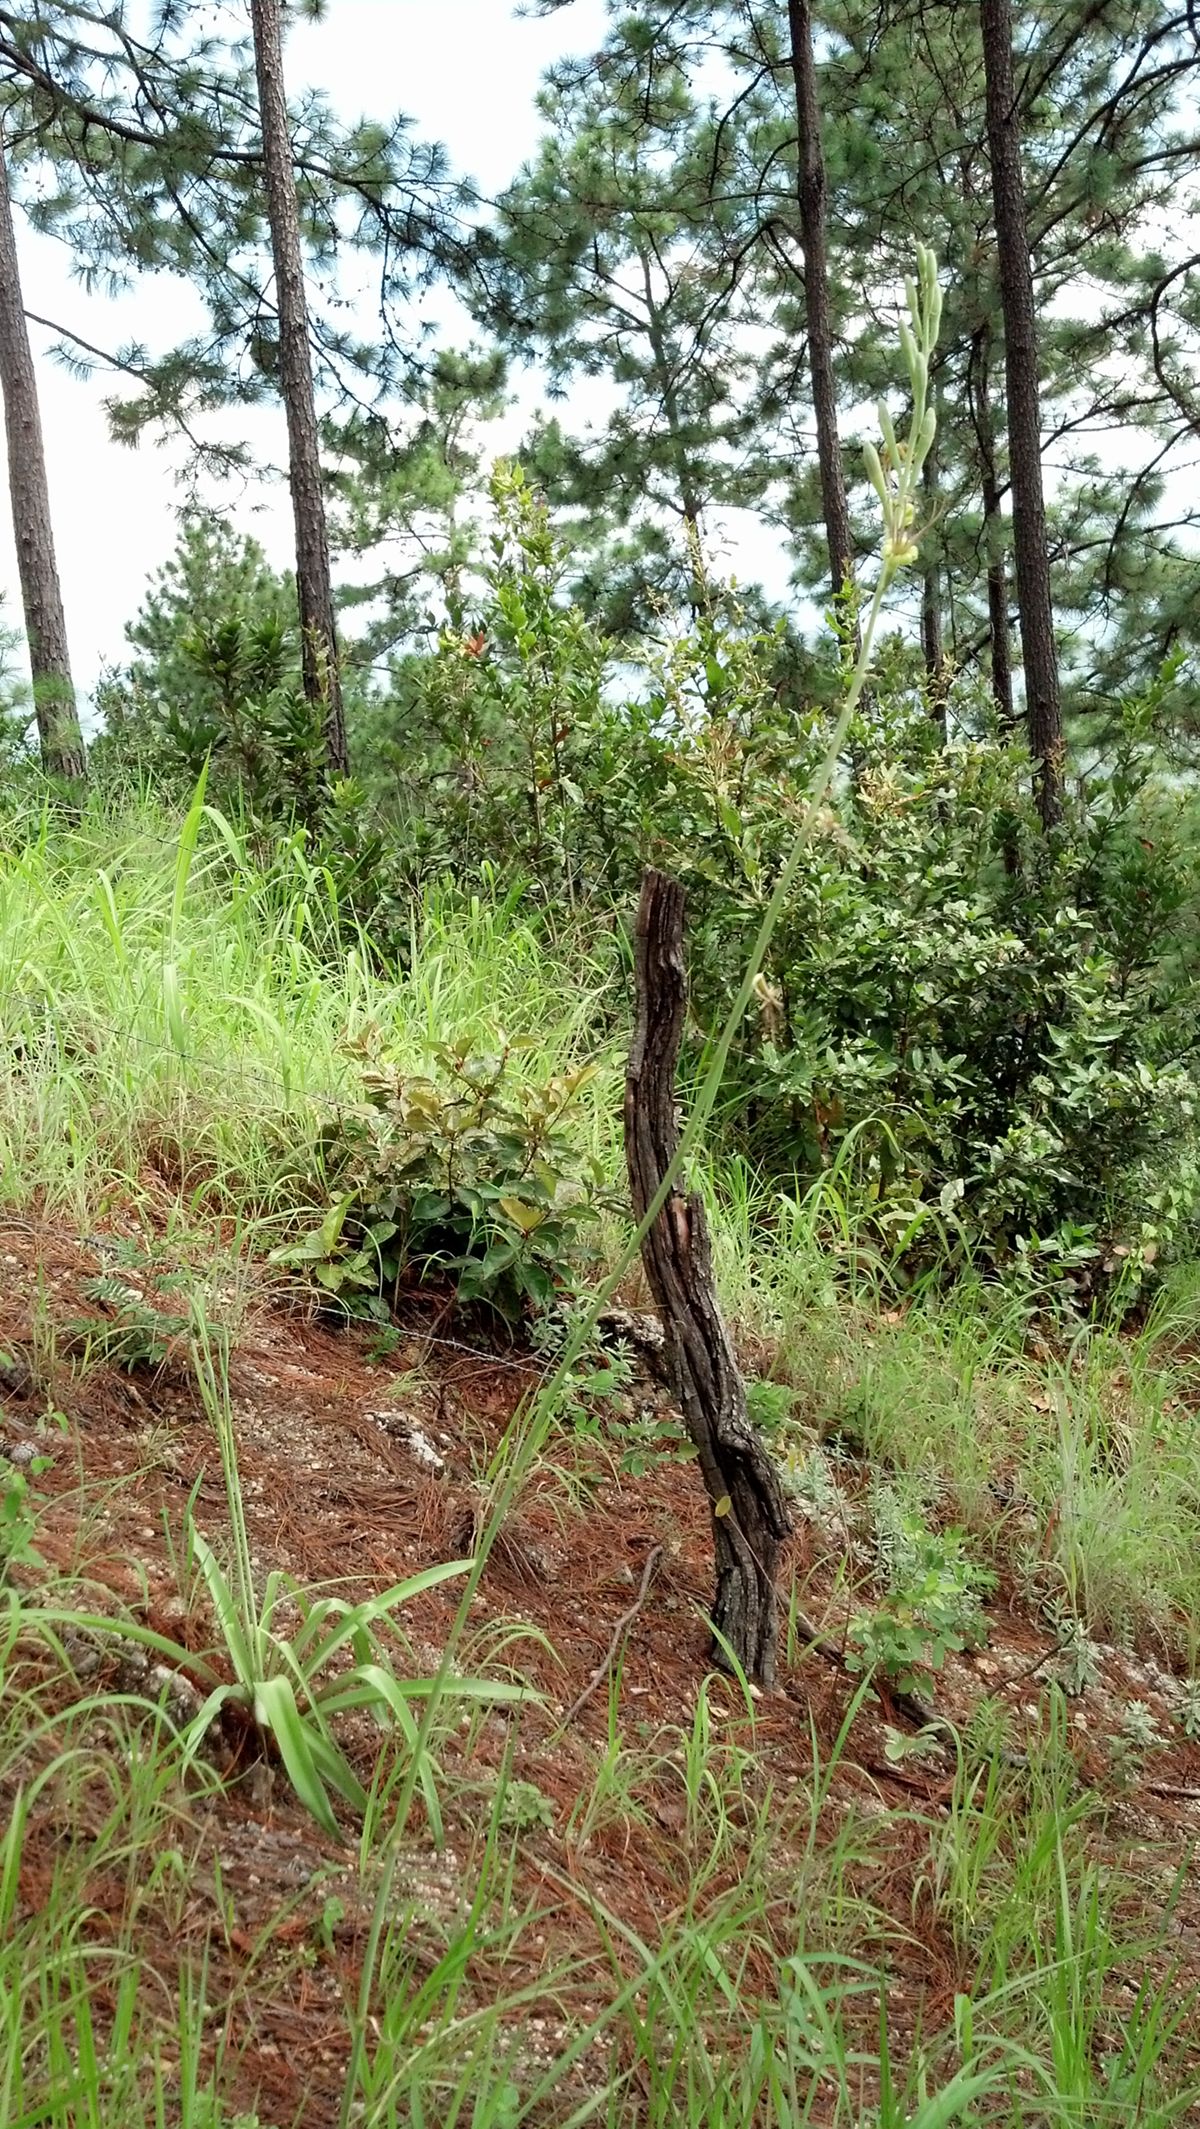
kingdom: Plantae
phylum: Tracheophyta
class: Liliopsida
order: Asparagales
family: Asparagaceae
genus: Agave
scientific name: Agave scabra
